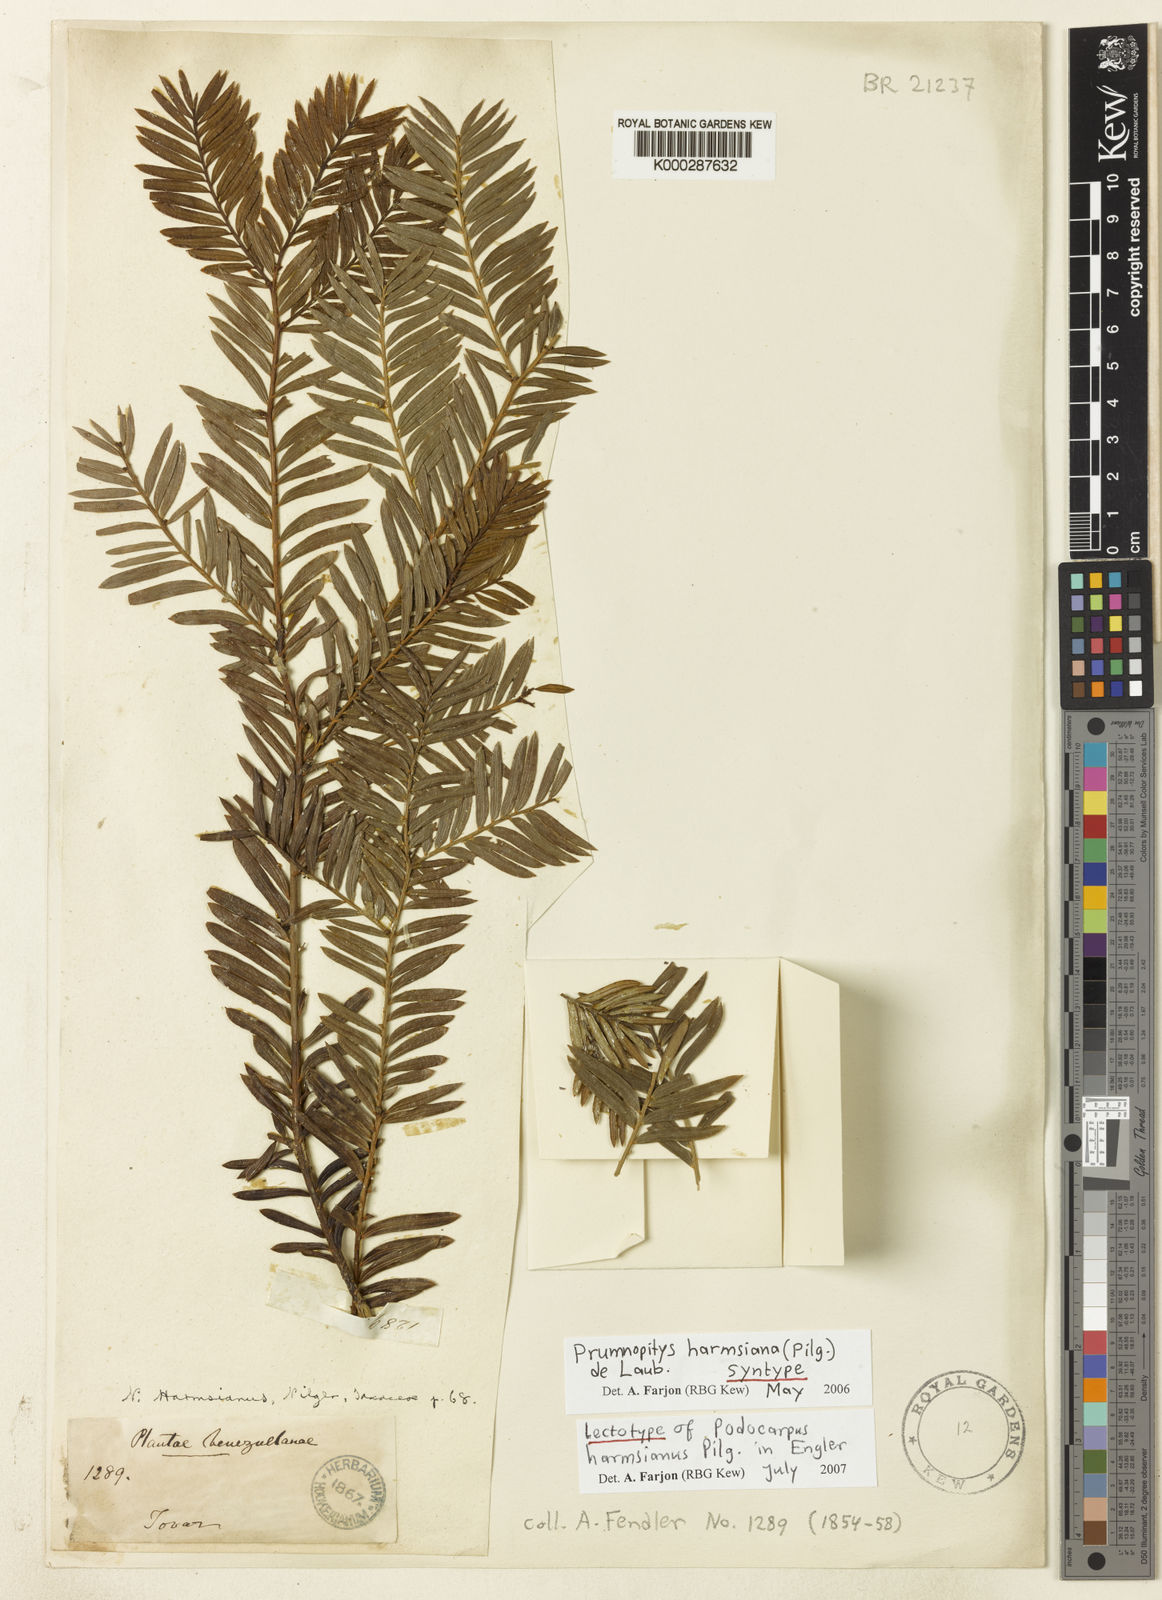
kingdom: Plantae
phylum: Tracheophyta
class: Pinopsida
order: Pinales
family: Podocarpaceae
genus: Prumnopitys
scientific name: Prumnopitys harmsiana
